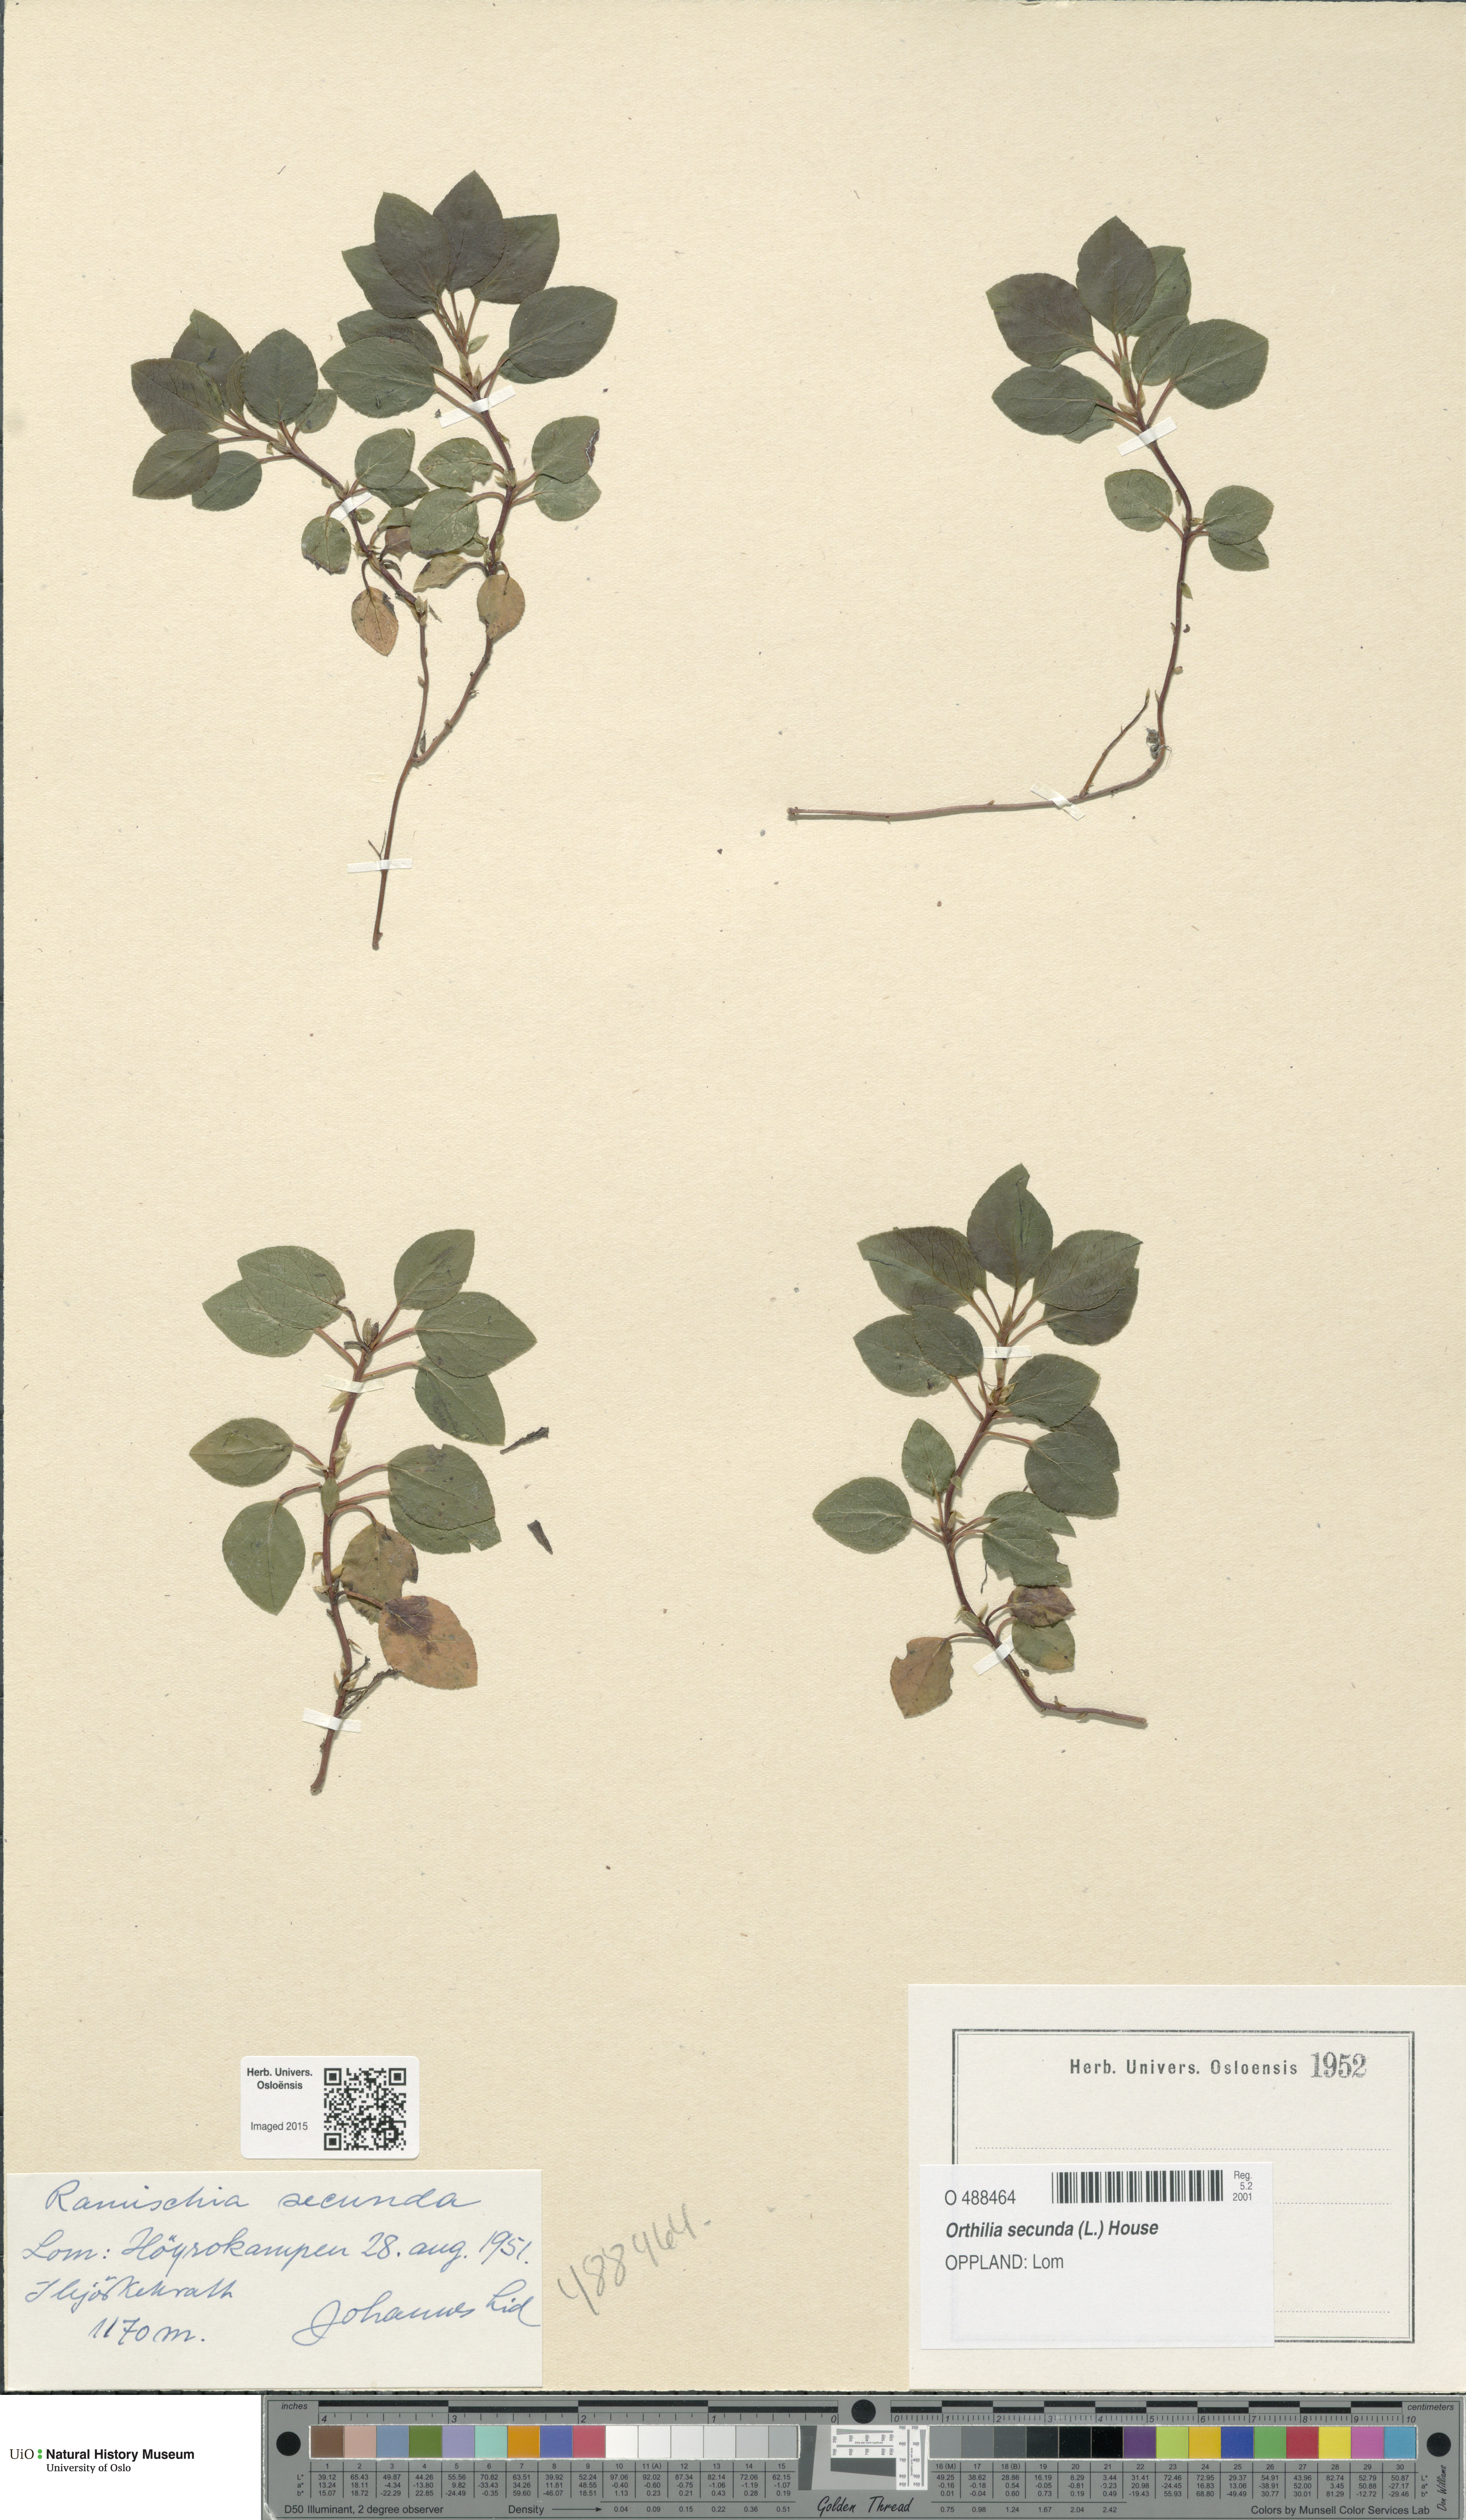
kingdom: Plantae
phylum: Tracheophyta
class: Magnoliopsida
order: Ericales
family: Ericaceae
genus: Orthilia
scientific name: Orthilia secunda
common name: One-sided orthilia
